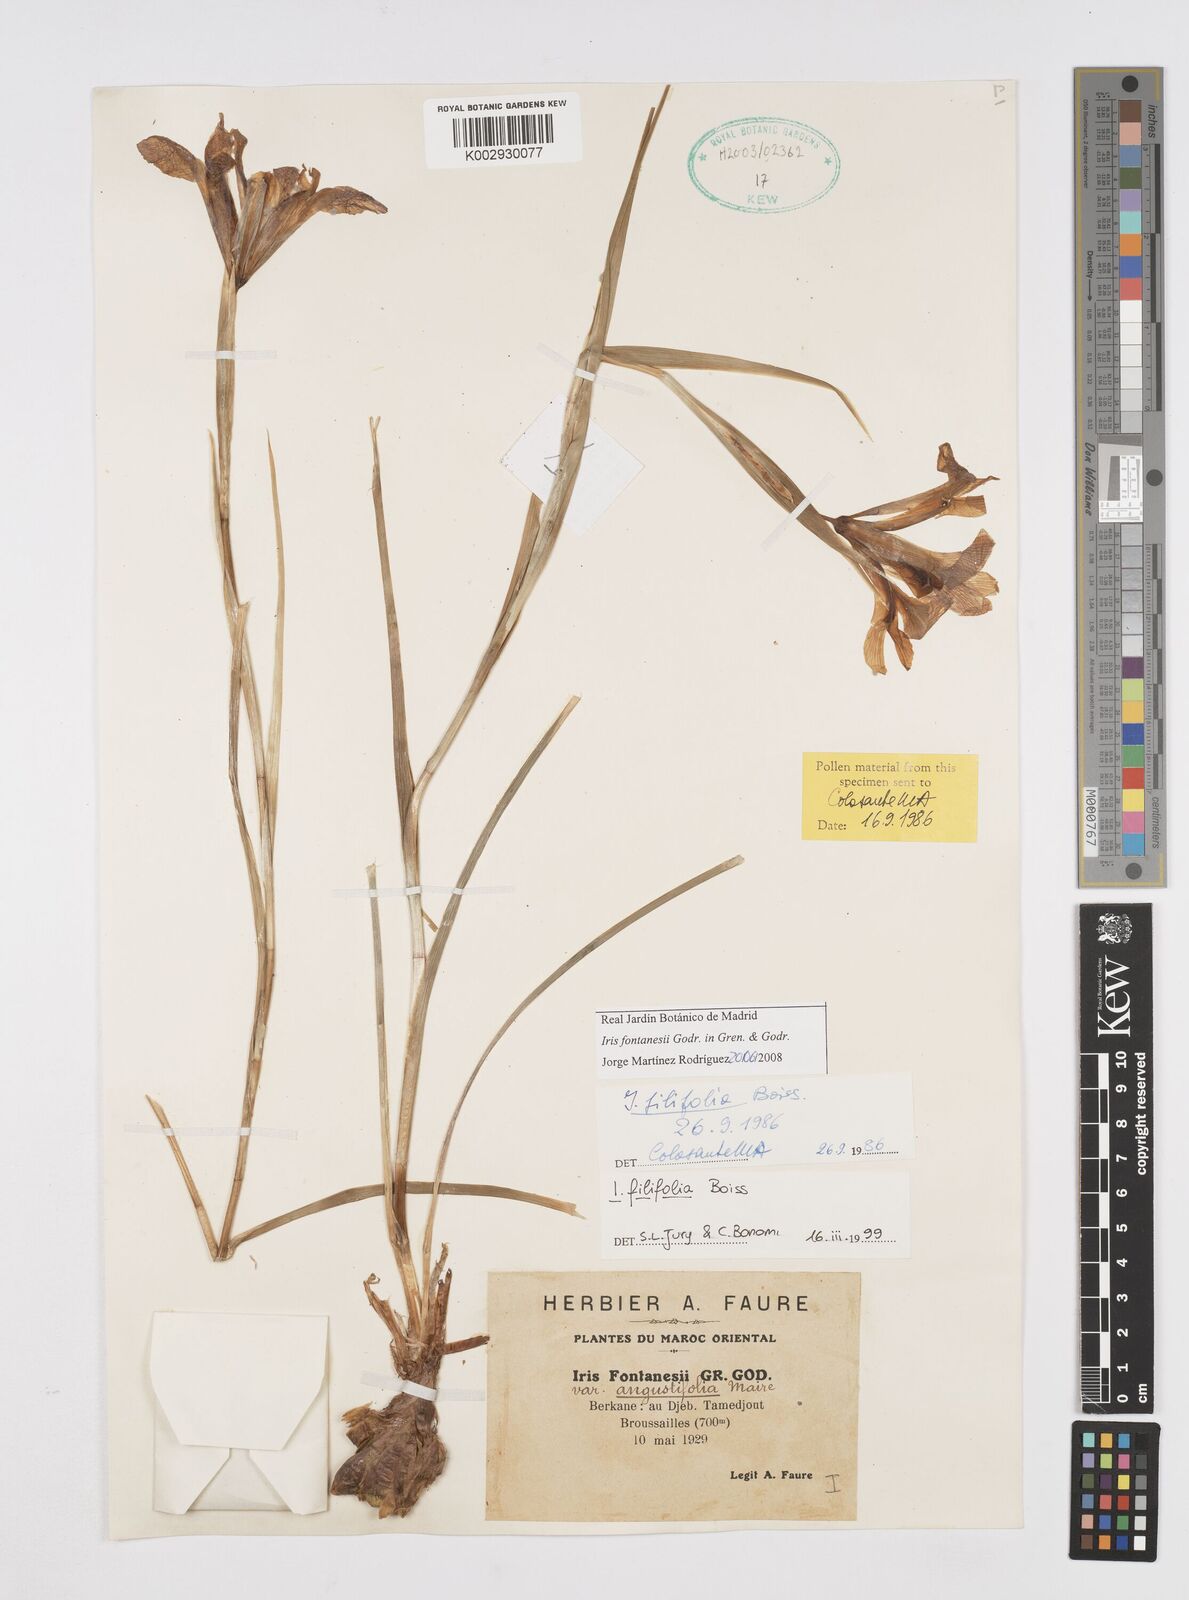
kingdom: Plantae
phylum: Tracheophyta
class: Liliopsida
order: Asparagales
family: Iridaceae
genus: Iris
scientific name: Iris tingitana
